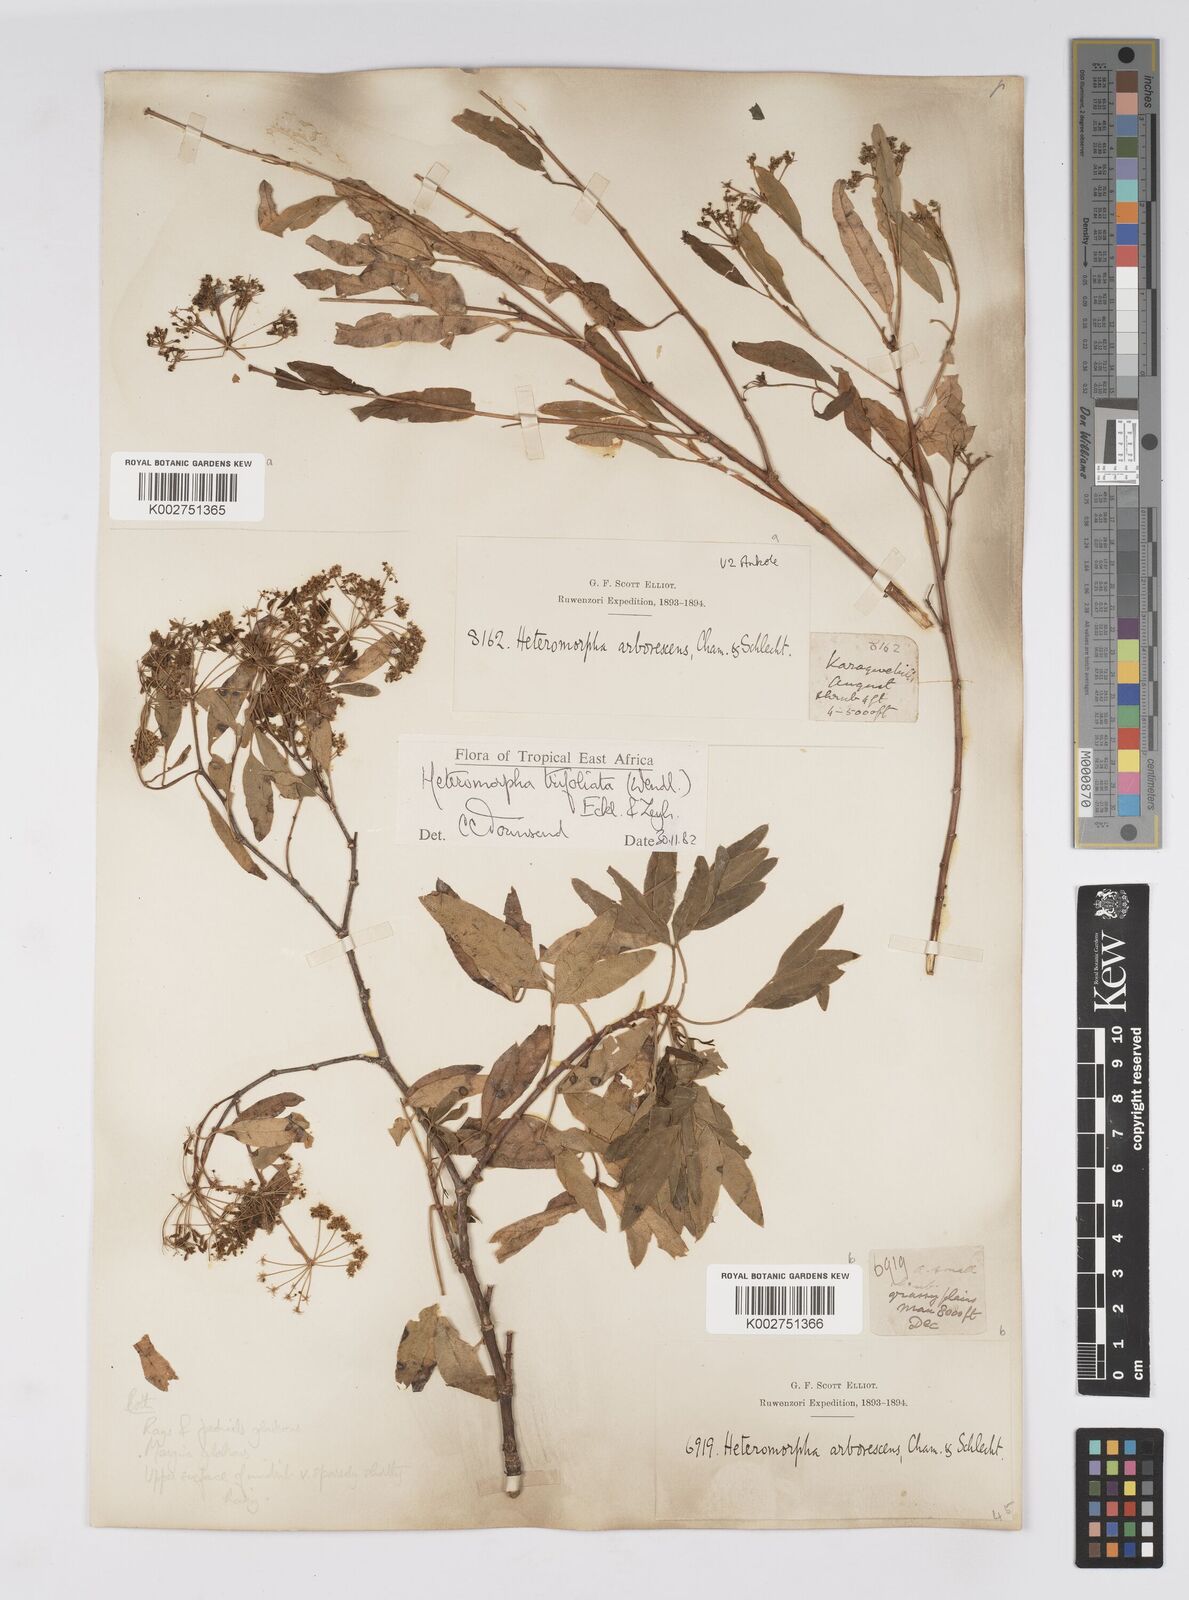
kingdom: Plantae
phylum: Tracheophyta
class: Magnoliopsida
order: Apiales
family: Apiaceae
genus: Heteromorpha
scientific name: Heteromorpha arborescens
